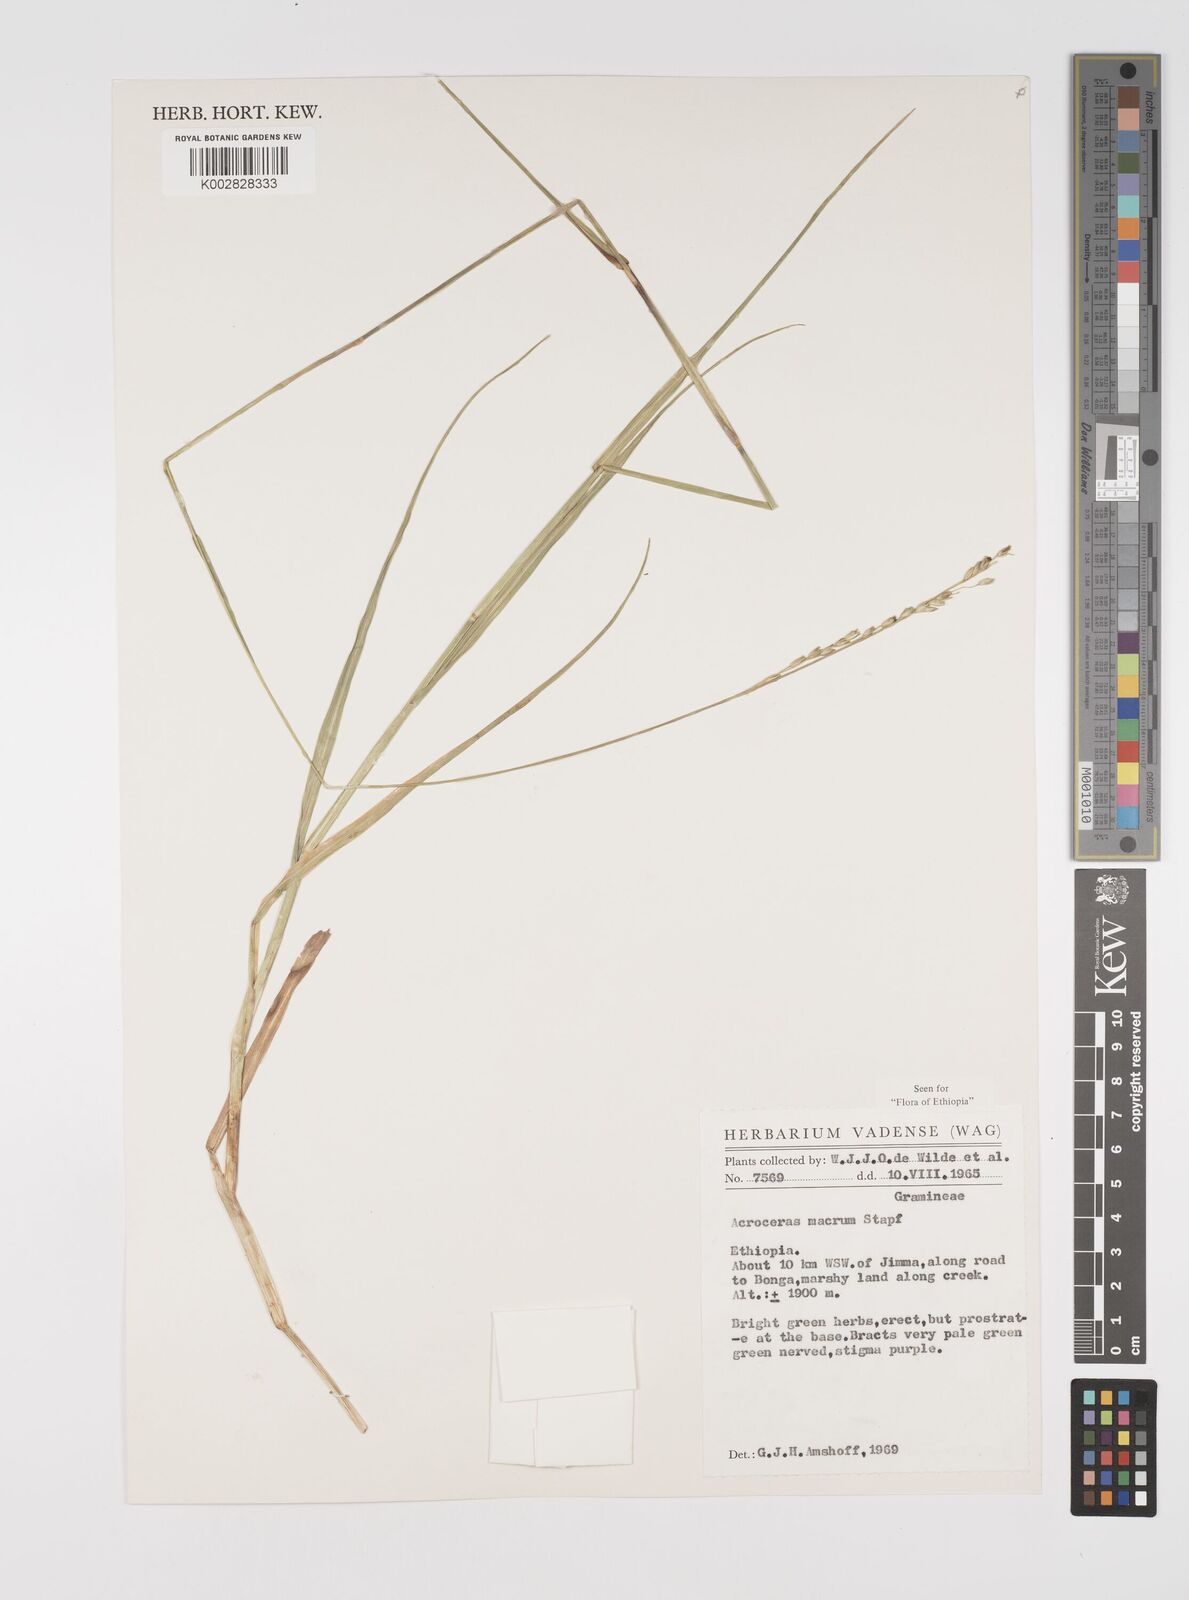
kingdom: Plantae
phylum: Tracheophyta
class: Liliopsida
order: Poales
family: Poaceae
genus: Acroceras
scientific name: Acroceras macrum
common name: Nyl grass
